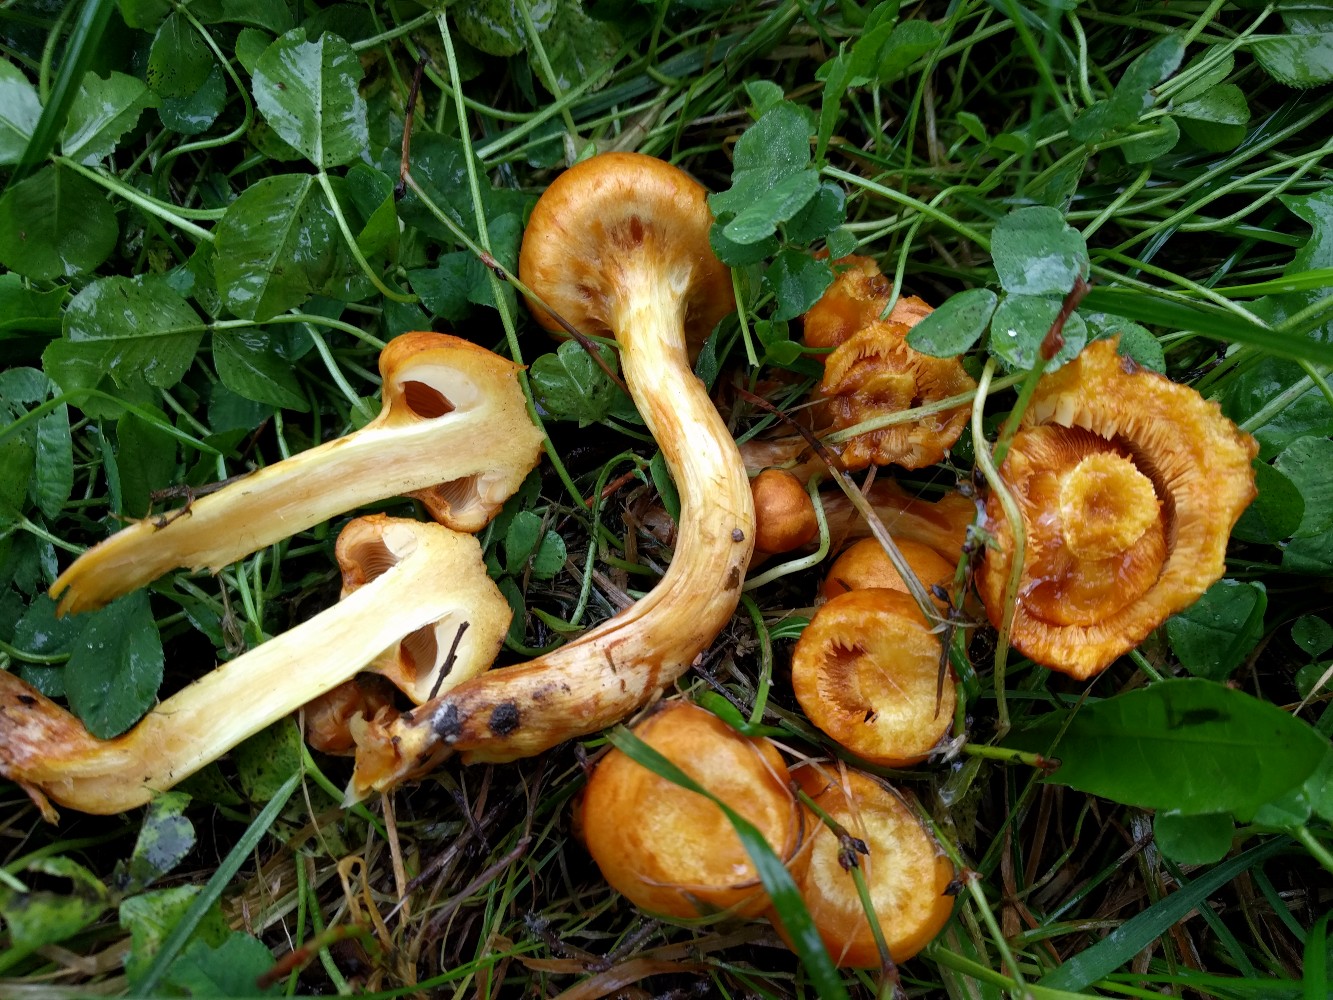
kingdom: Fungi
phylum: Basidiomycota
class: Agaricomycetes
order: Agaricales
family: Hymenogastraceae
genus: Gymnopilus
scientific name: Gymnopilus spectabilis
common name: fibret flammehat
